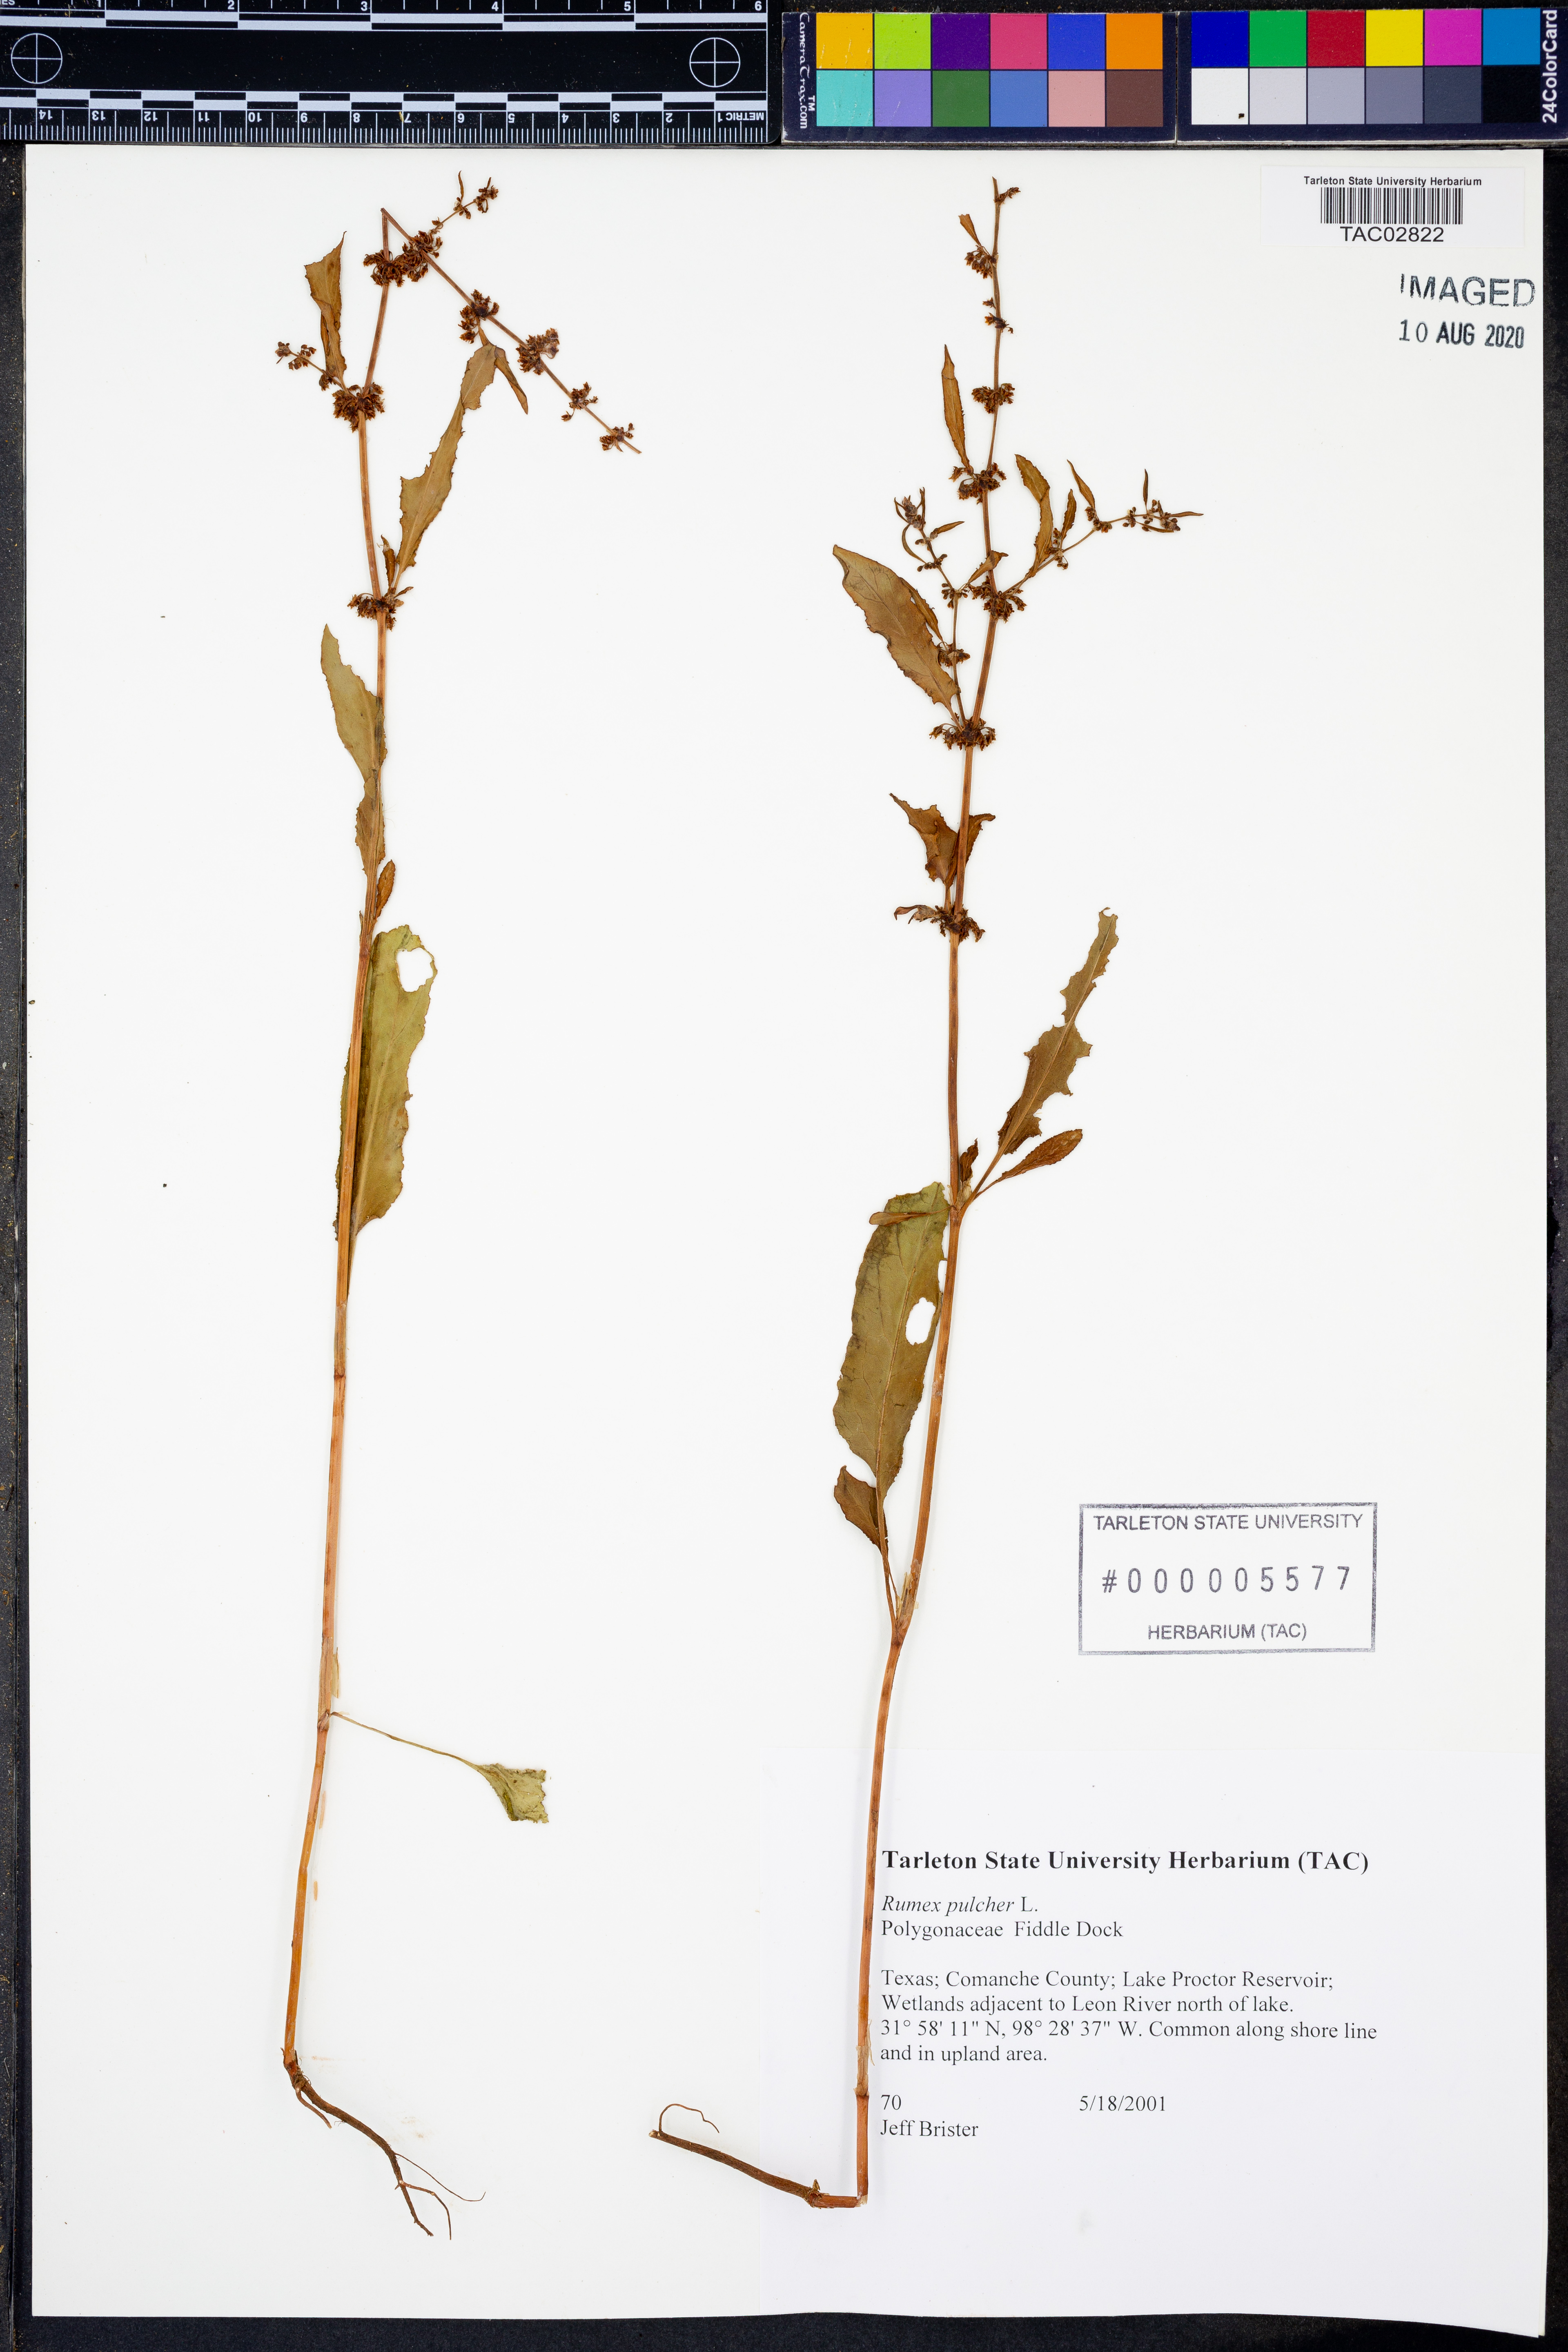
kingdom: Plantae
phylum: Tracheophyta
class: Magnoliopsida
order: Caryophyllales
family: Polygonaceae
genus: Rumex
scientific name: Rumex pulcher
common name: Fiddle dock
